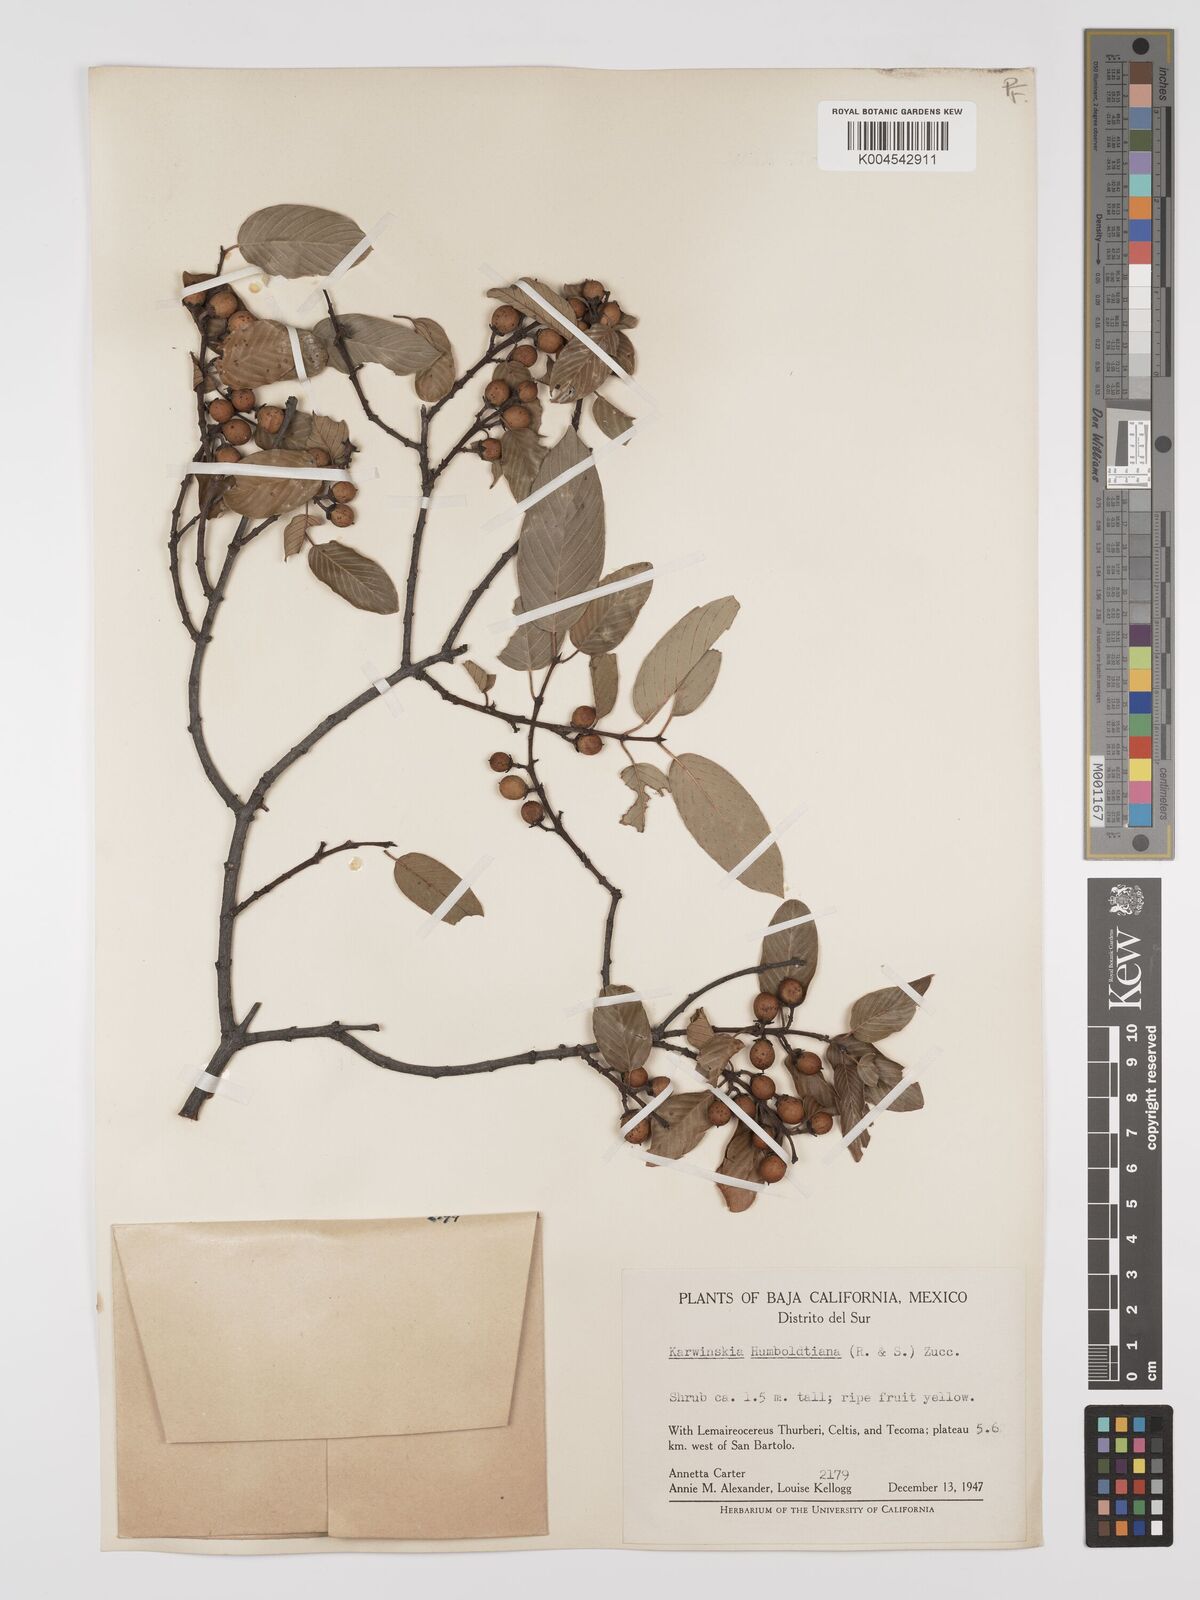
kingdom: Plantae
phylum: Tracheophyta
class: Magnoliopsida
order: Rosales
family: Rhamnaceae
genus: Karwinskia
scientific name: Karwinskia humboldtiana
